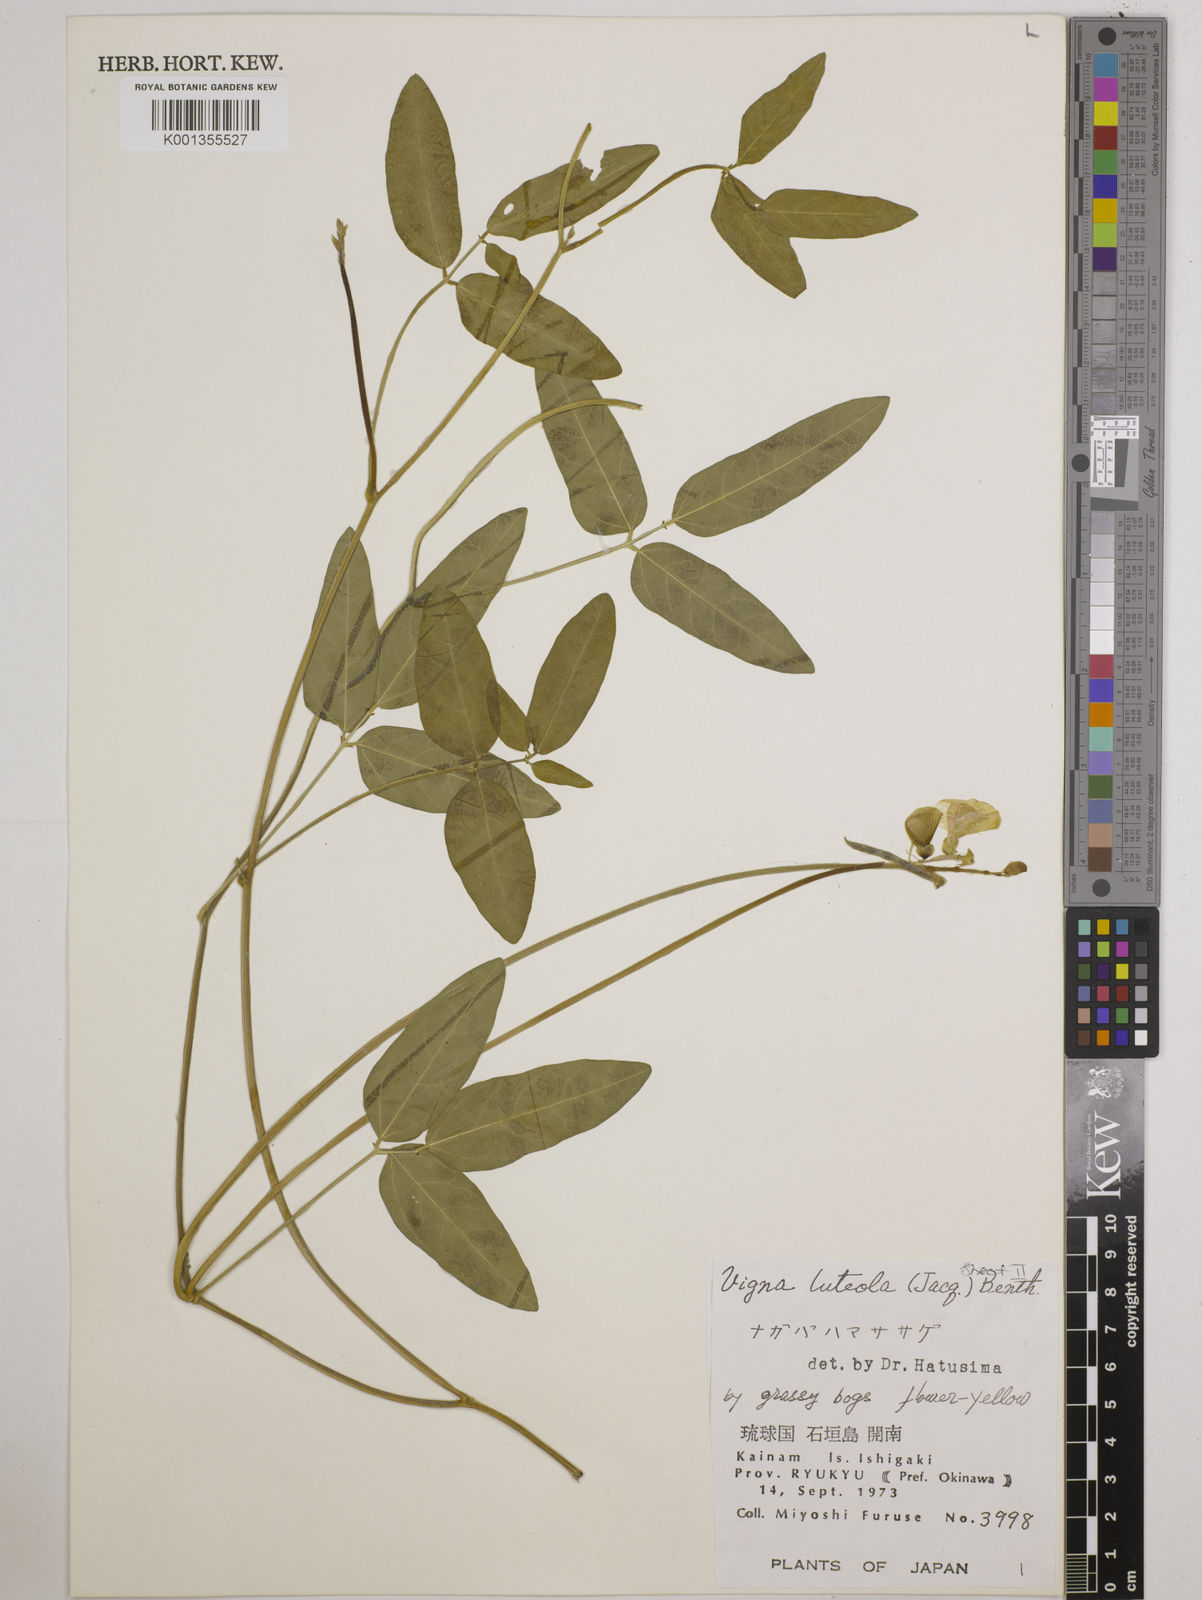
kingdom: Plantae
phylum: Tracheophyta
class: Magnoliopsida
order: Fabales
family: Fabaceae
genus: Vigna
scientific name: Vigna luteola
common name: Hairypod cowpea
